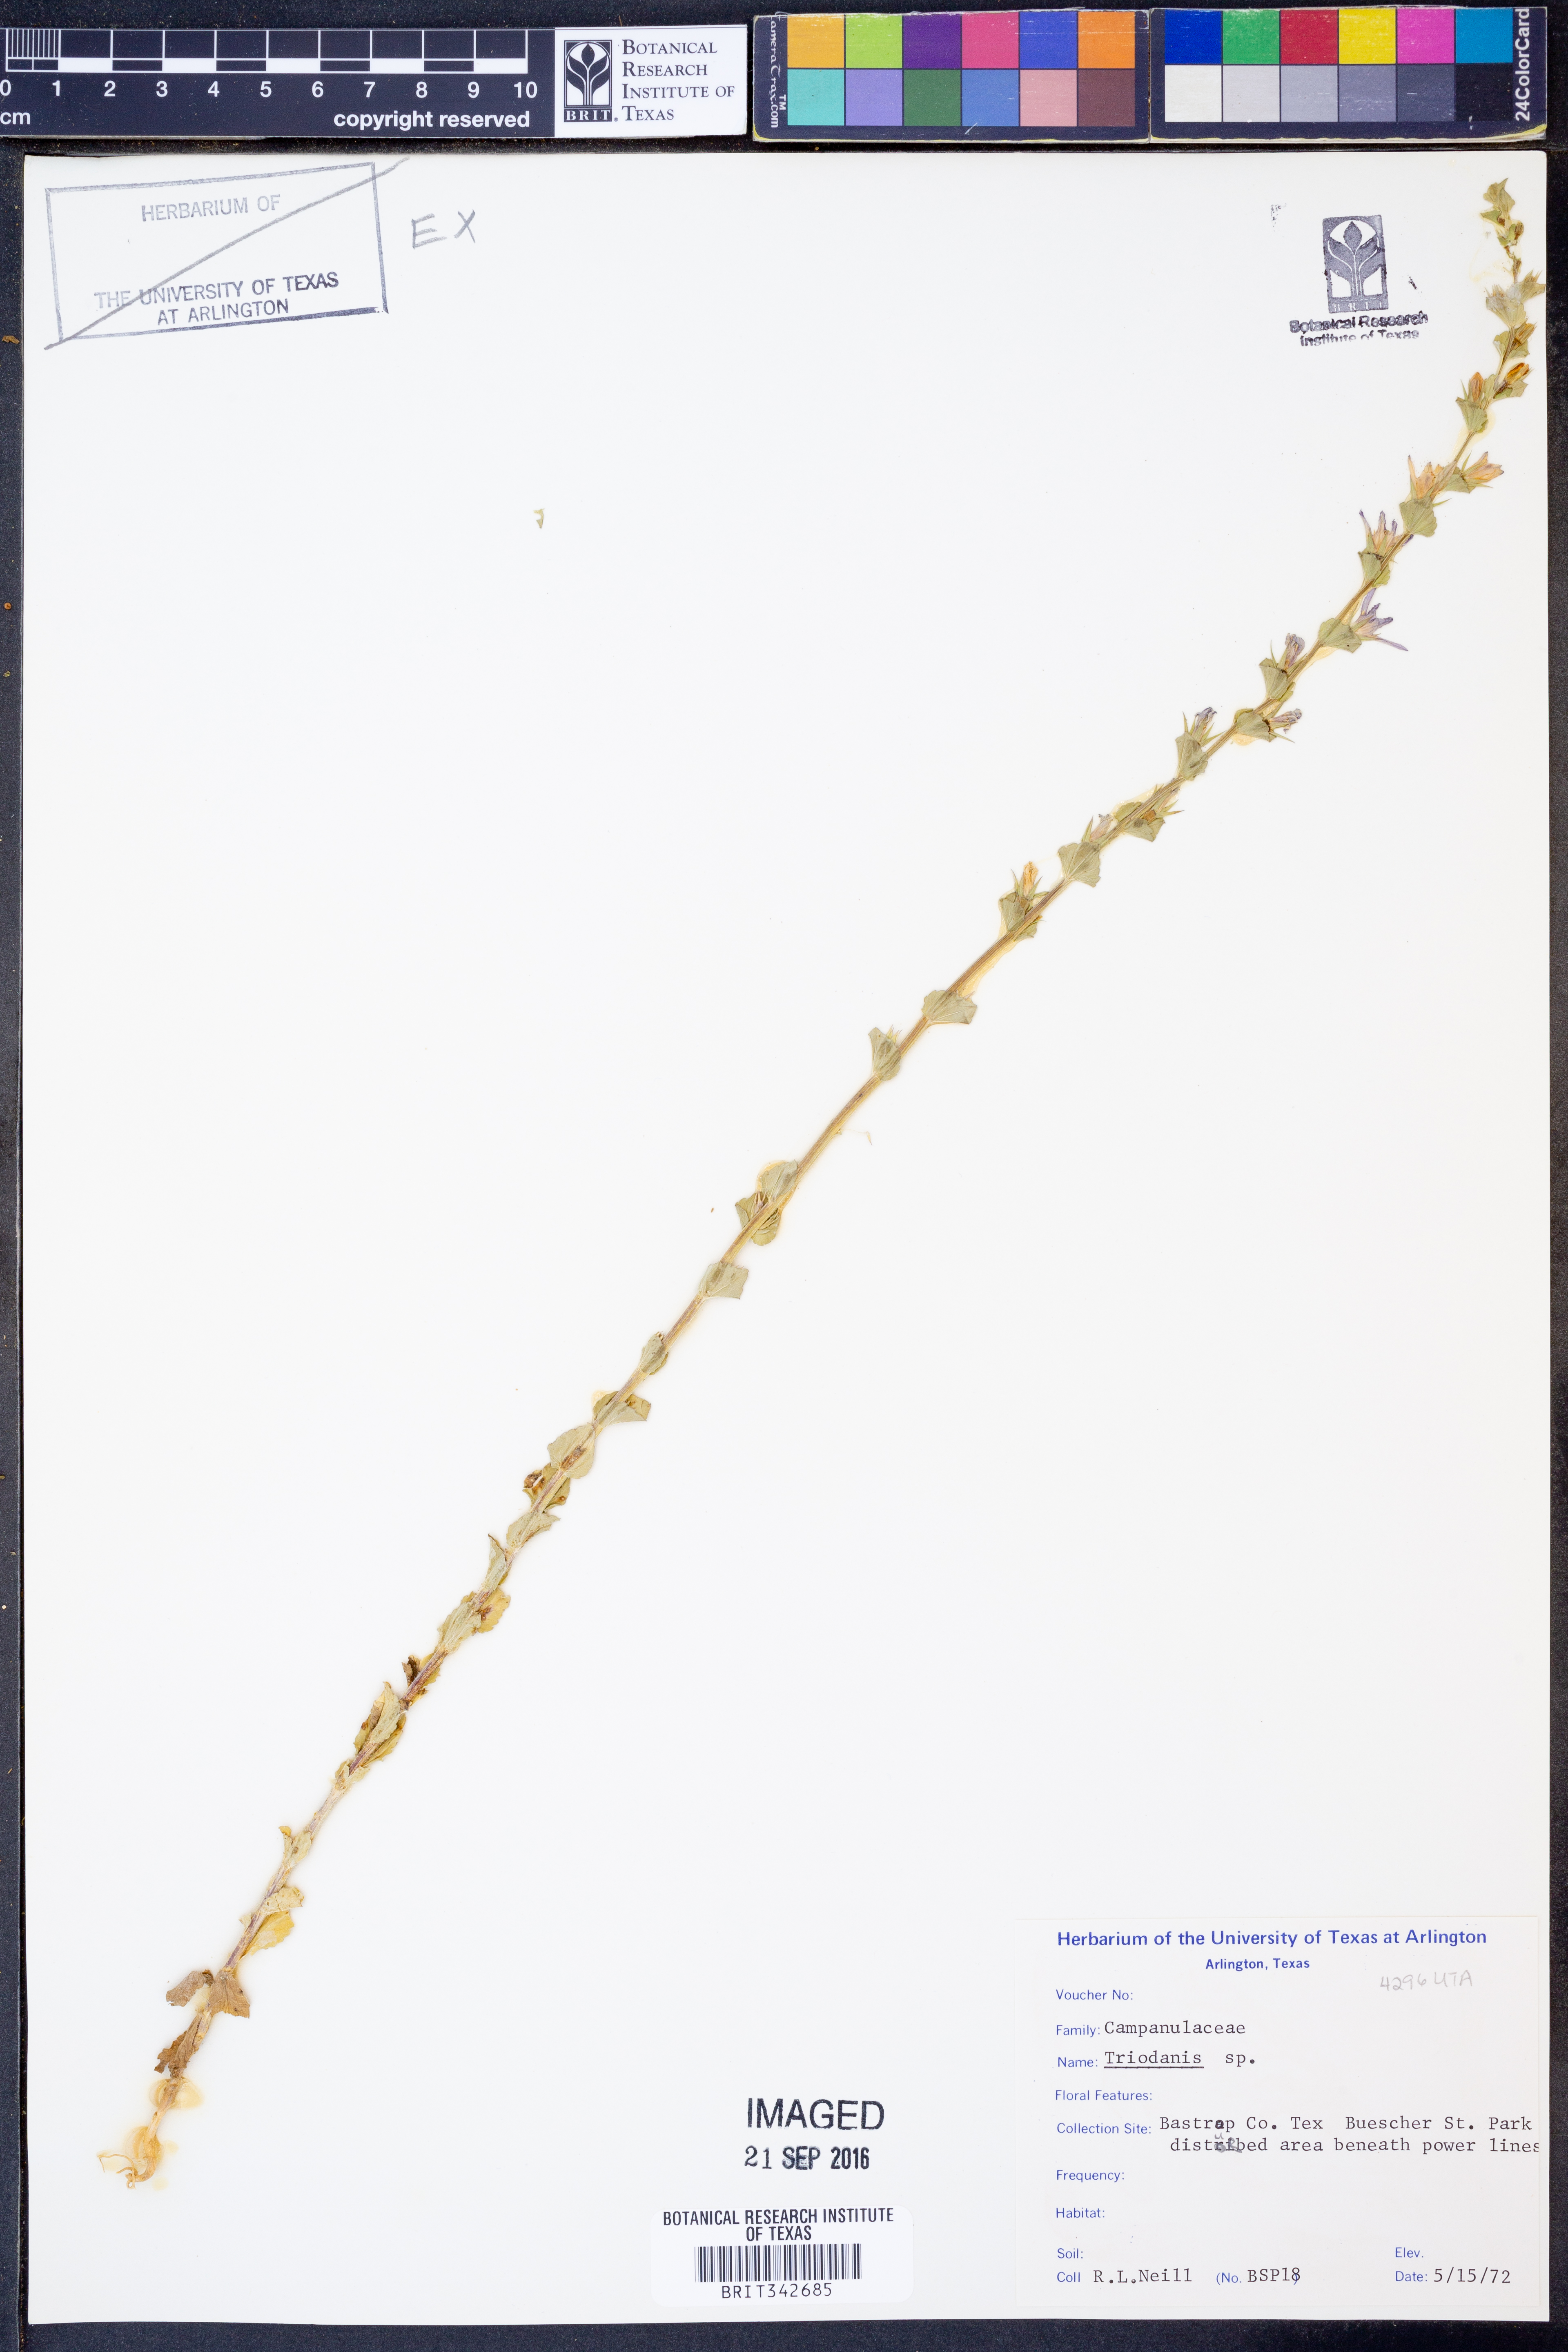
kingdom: Plantae
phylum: Tracheophyta
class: Magnoliopsida
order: Asterales
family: Campanulaceae
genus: Triodanis
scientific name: Triodanis
